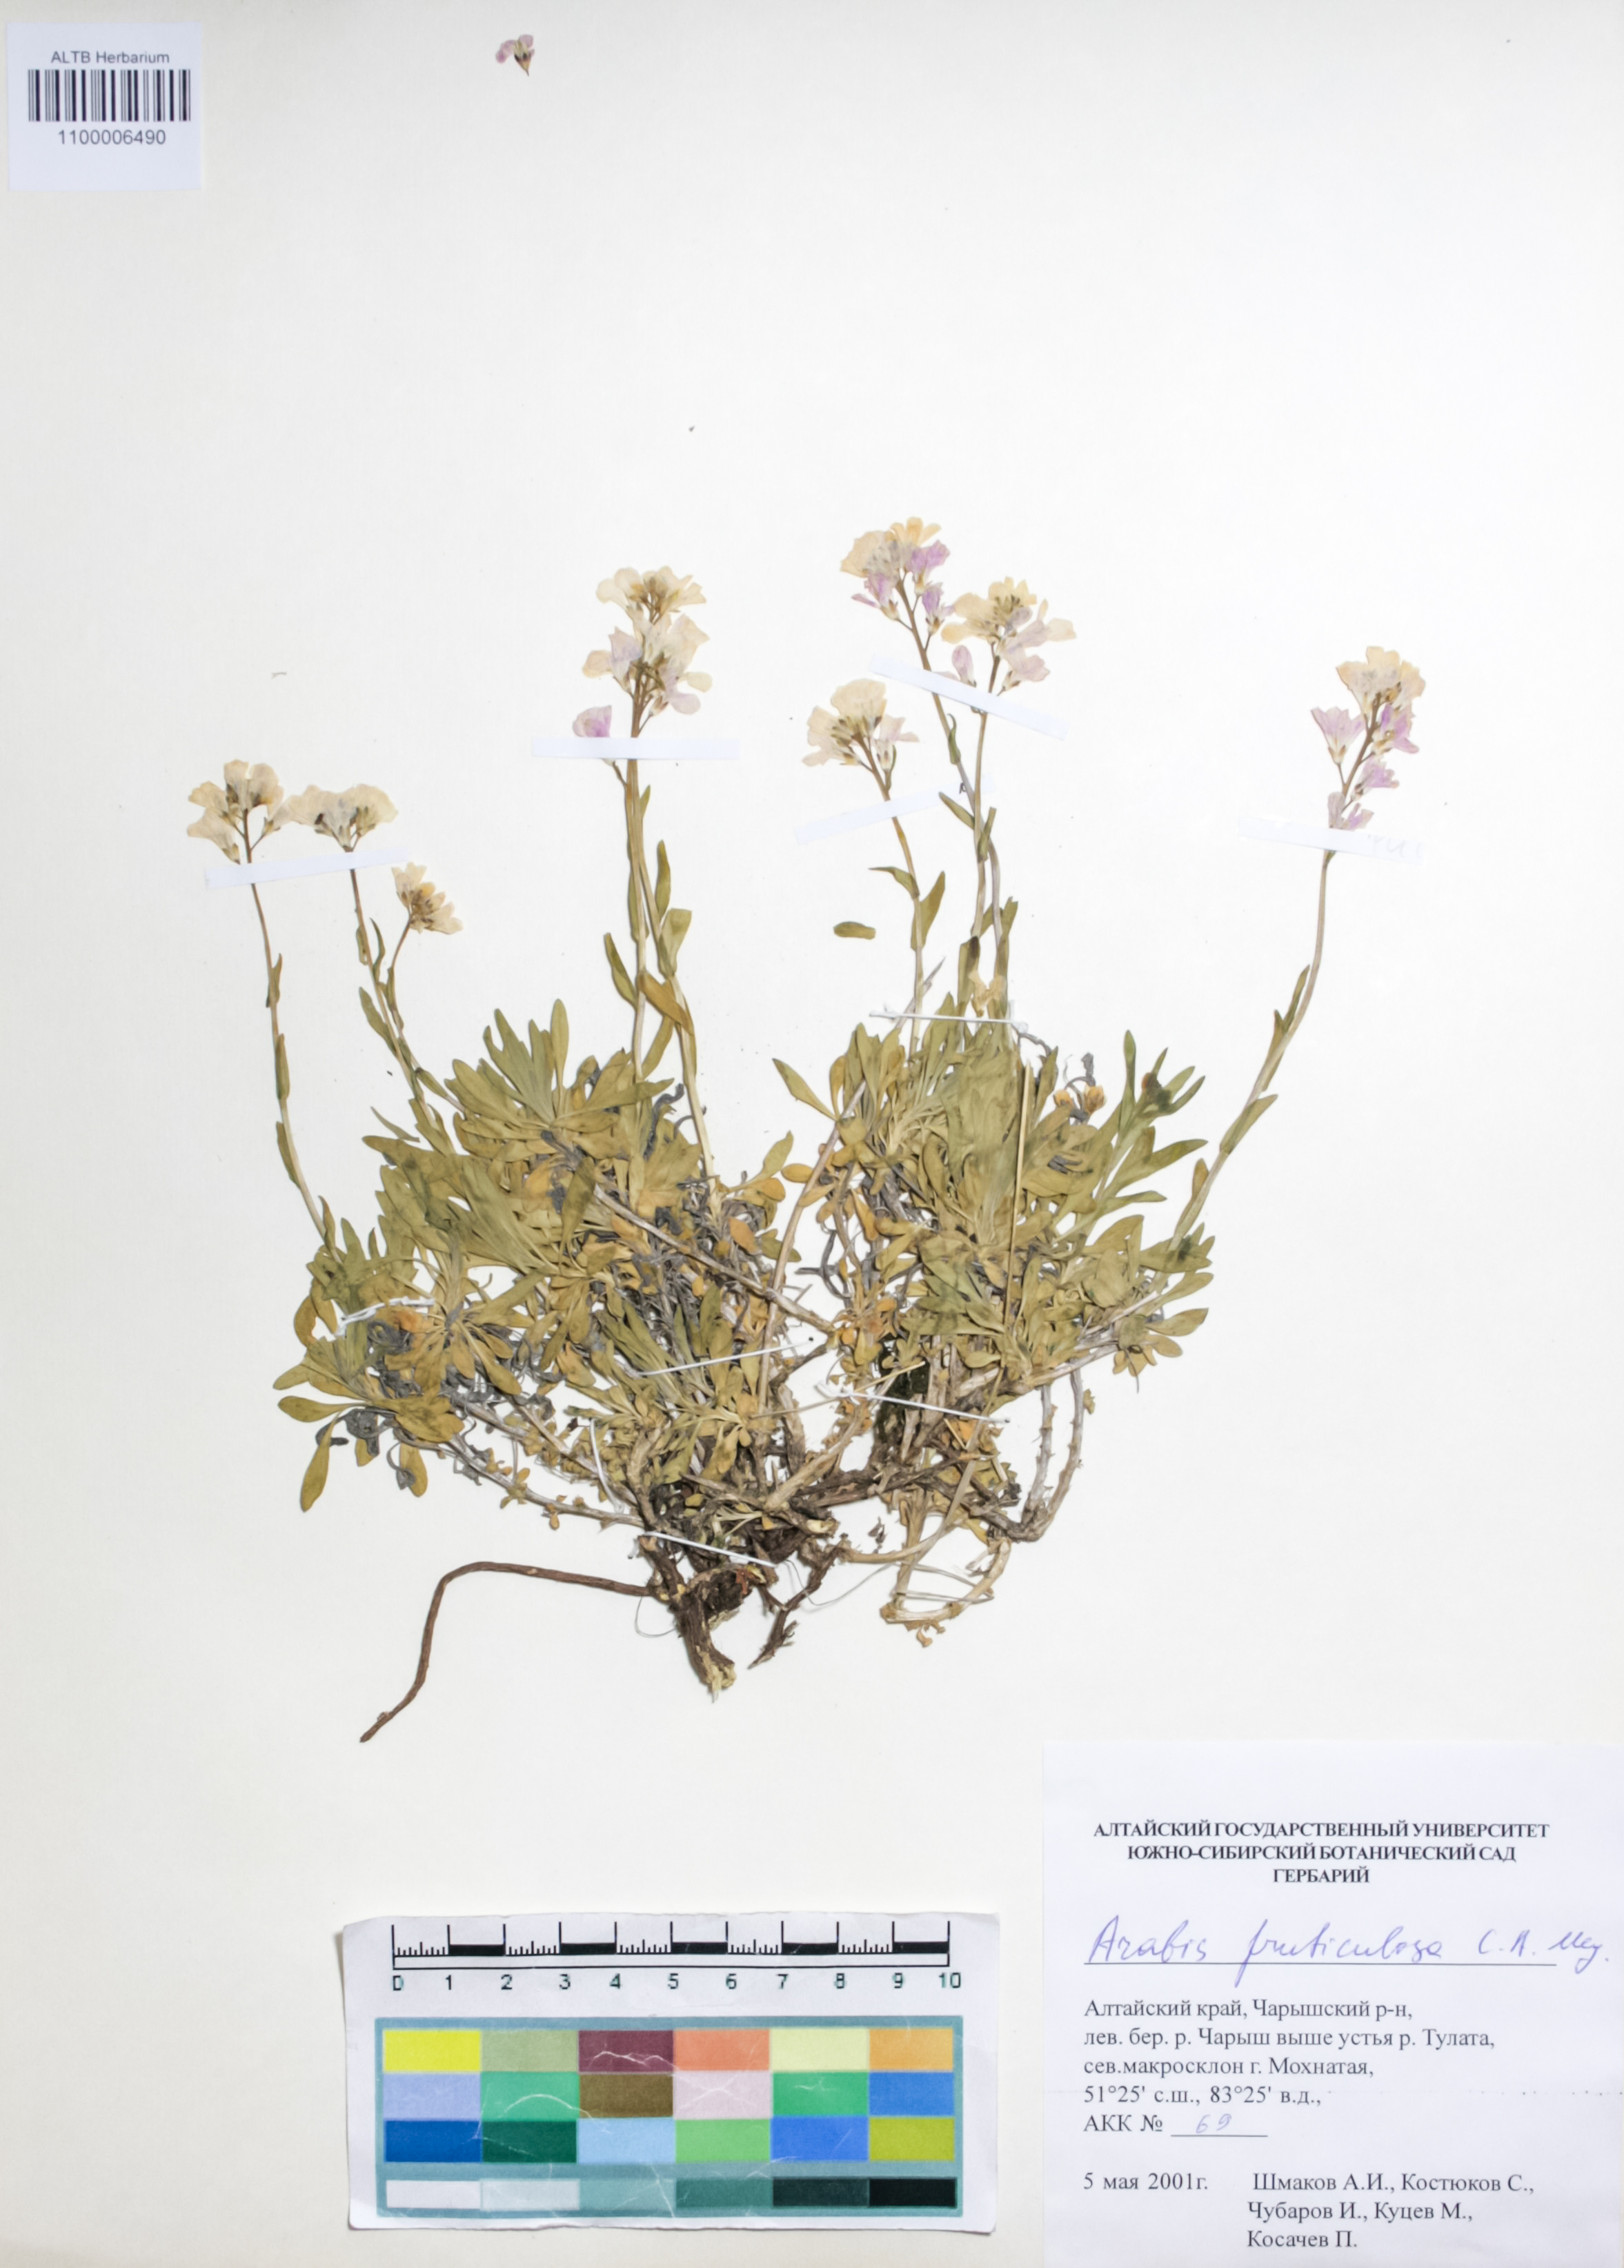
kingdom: Plantae
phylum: Tracheophyta
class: Magnoliopsida
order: Brassicales
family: Brassicaceae
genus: Dendroarabis
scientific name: Dendroarabis fruticulosa
